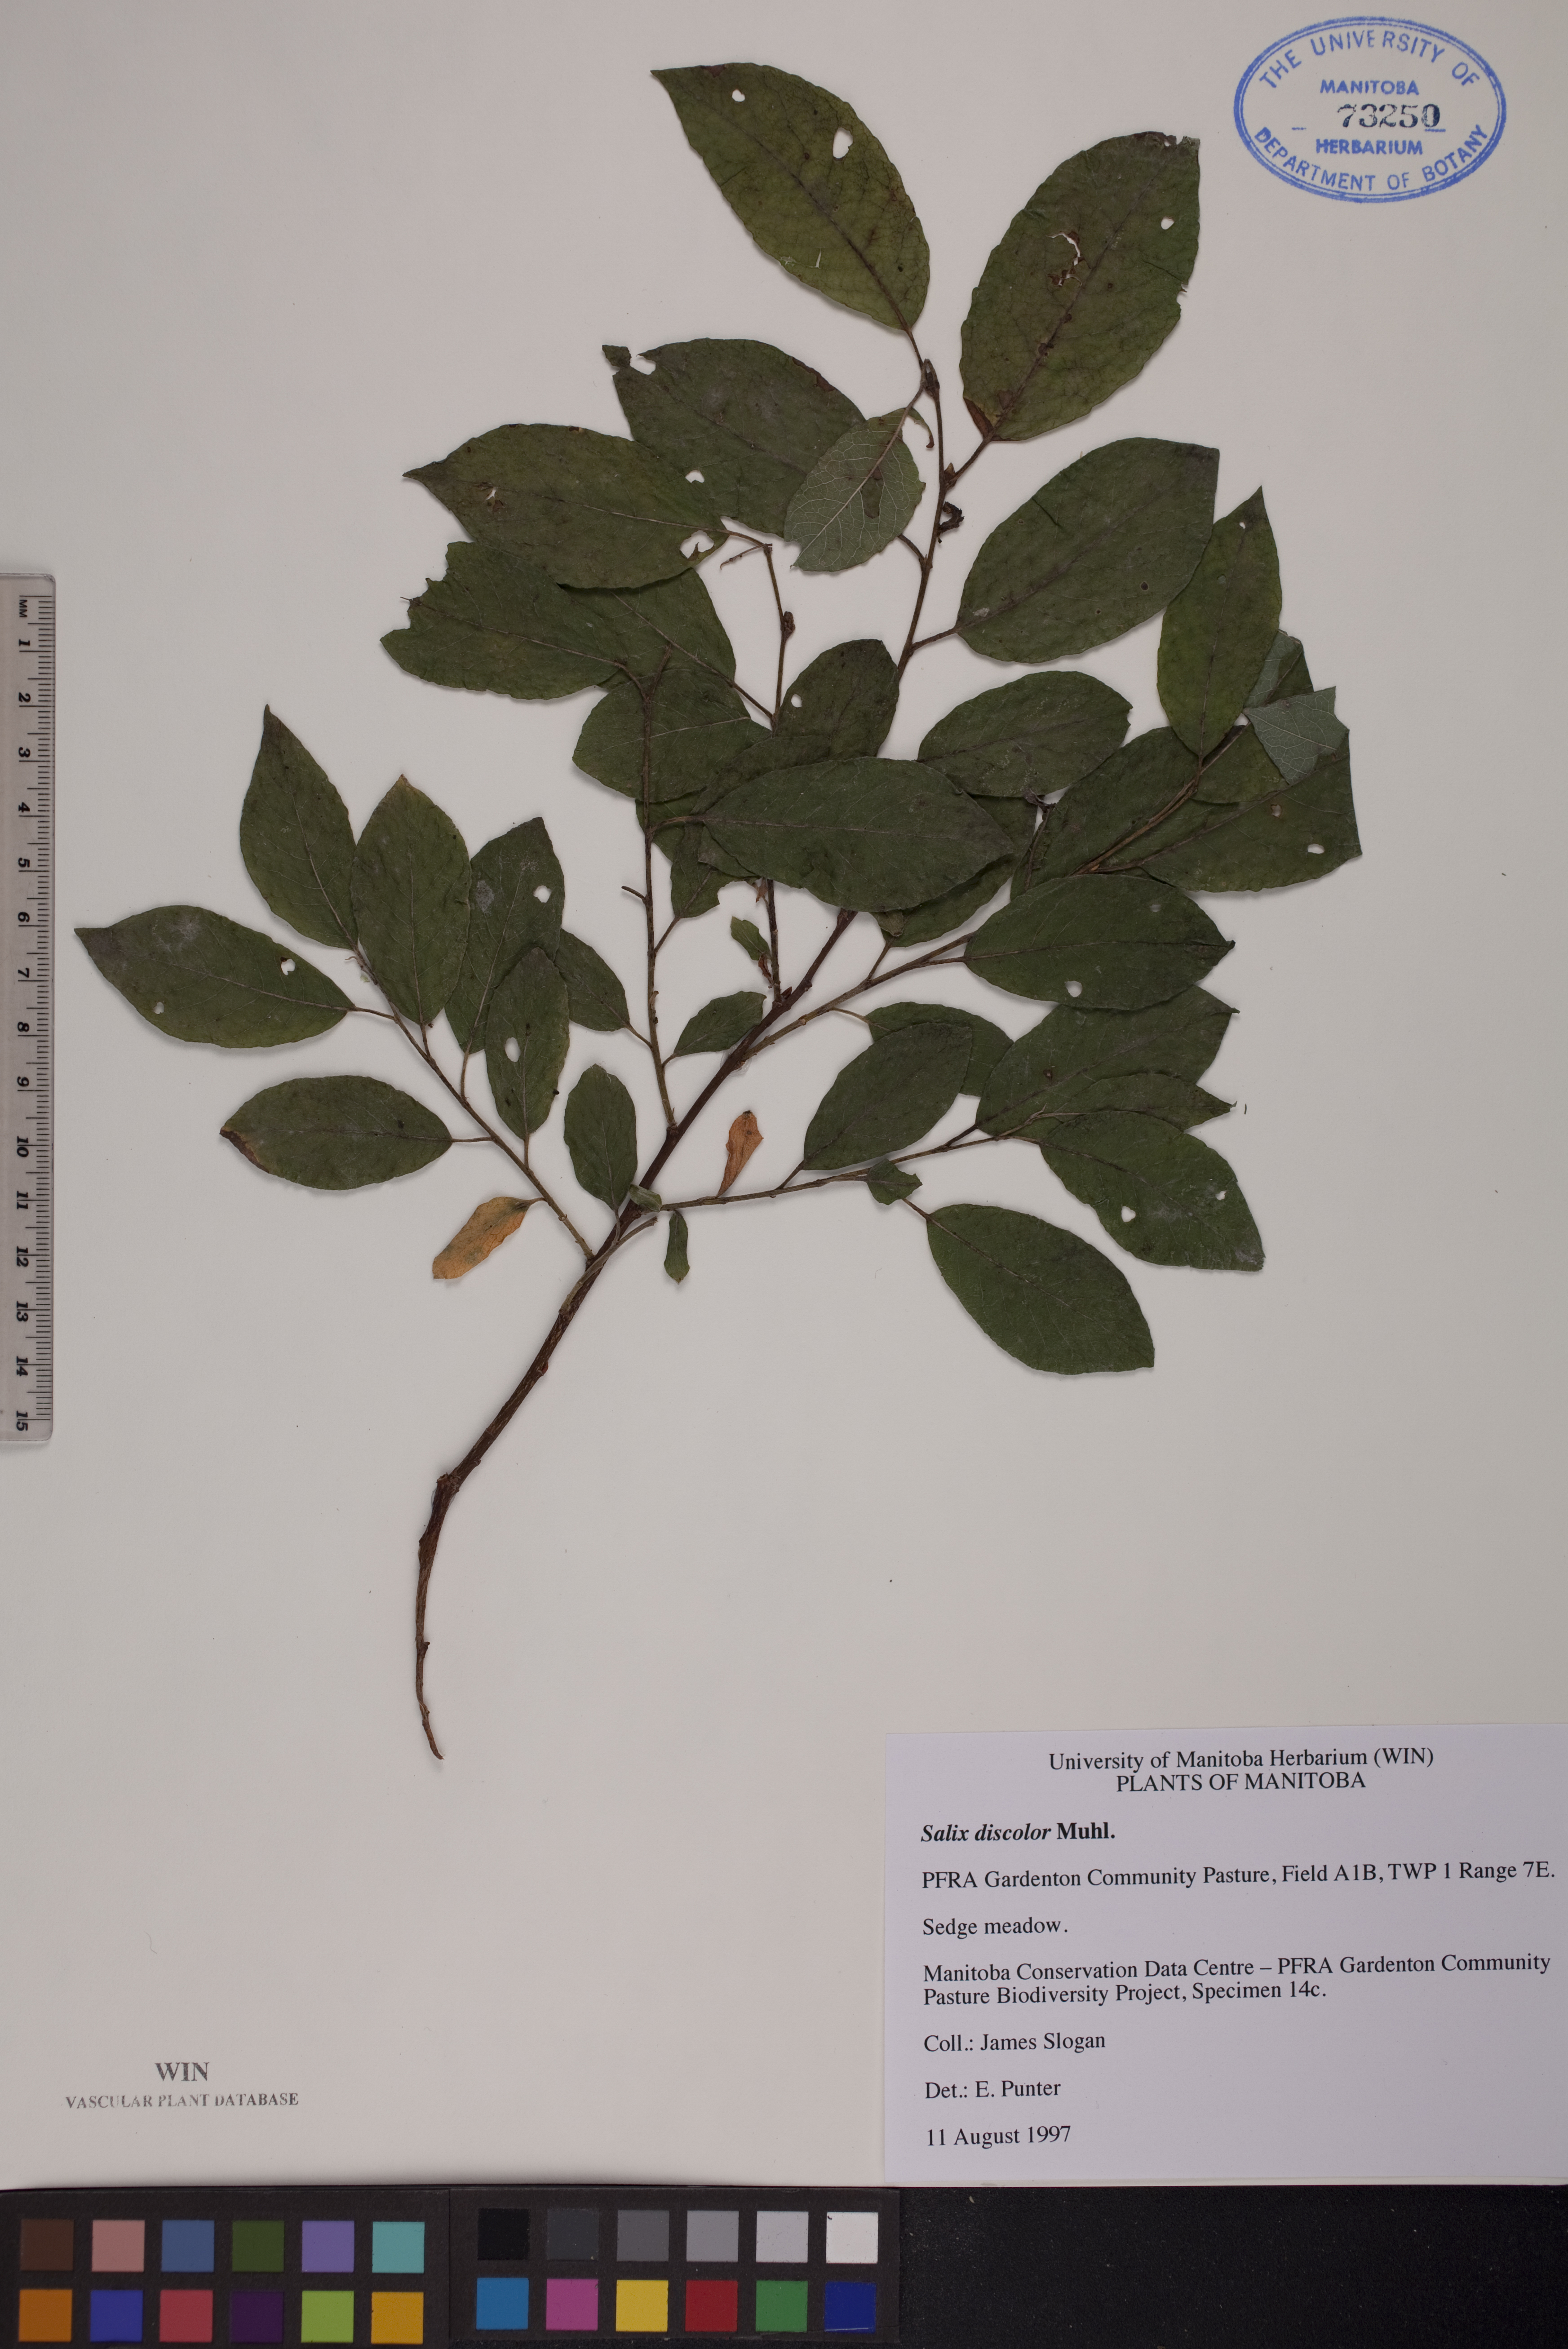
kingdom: Plantae
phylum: Tracheophyta
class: Magnoliopsida
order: Malpighiales
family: Salicaceae
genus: Salix
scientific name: Salix discolor
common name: Glaucous willow
